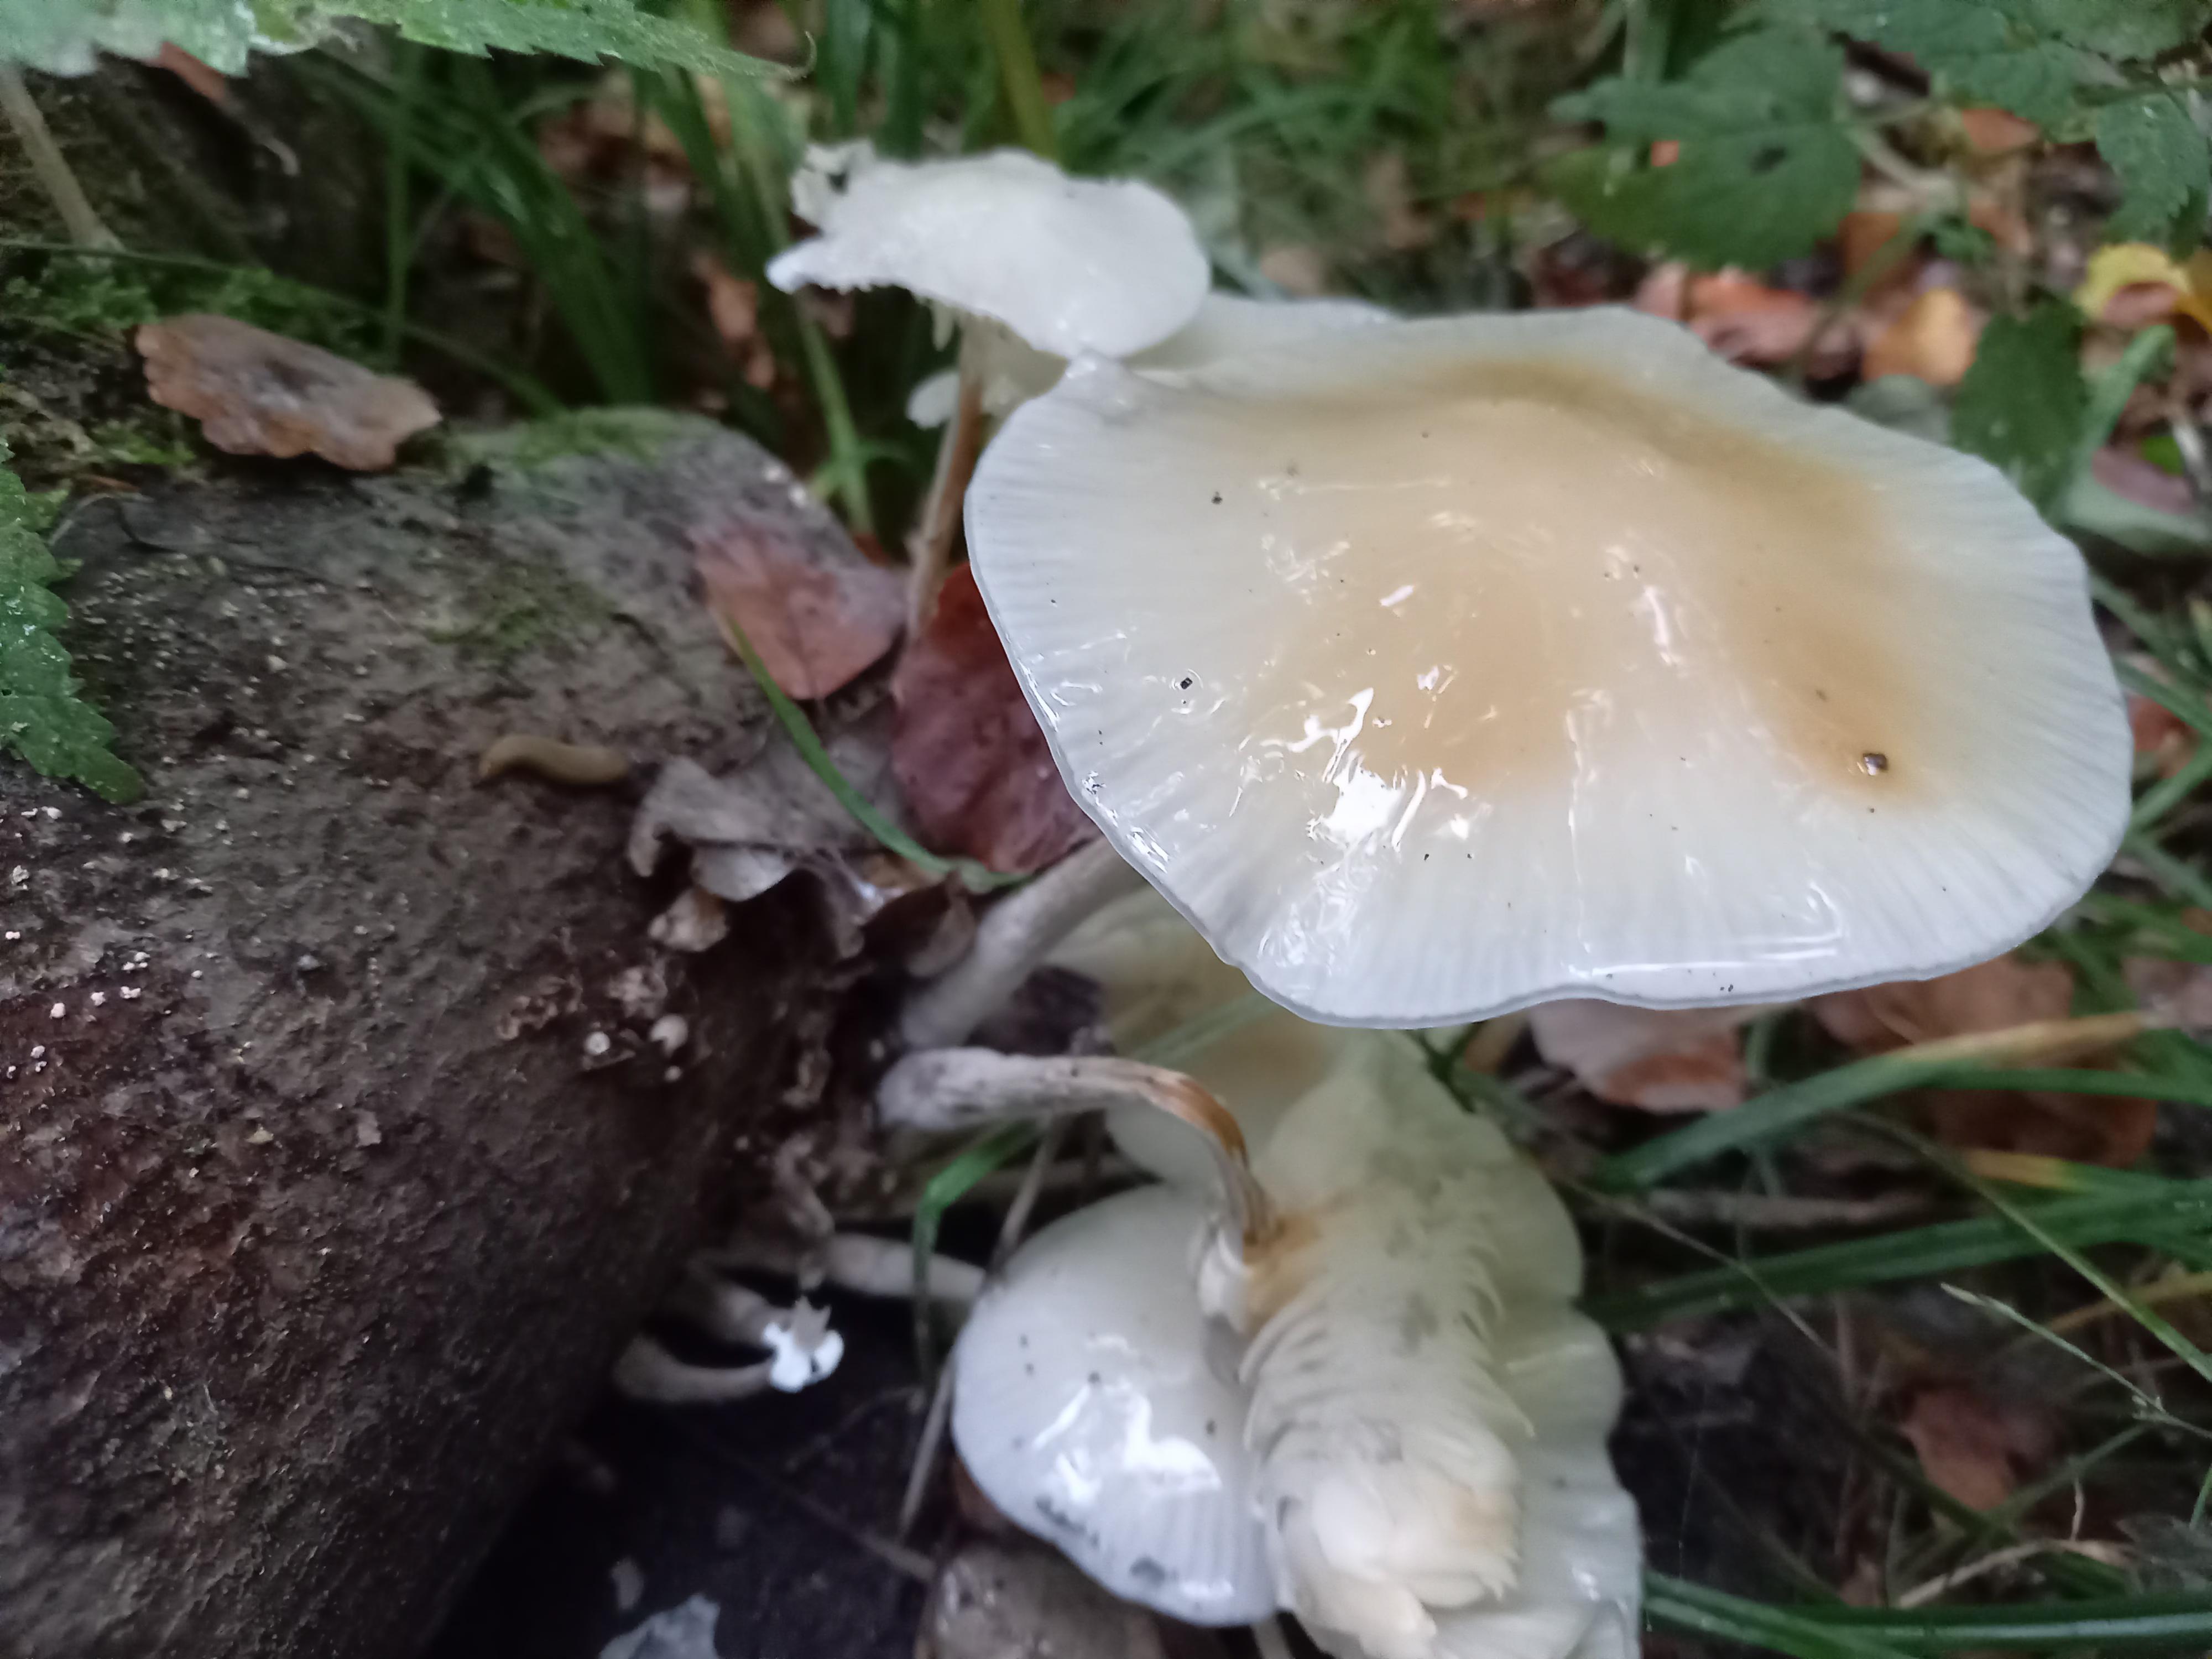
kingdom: Fungi
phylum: Basidiomycota
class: Agaricomycetes
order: Agaricales
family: Physalacriaceae
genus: Mucidula
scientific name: Mucidula mucida
